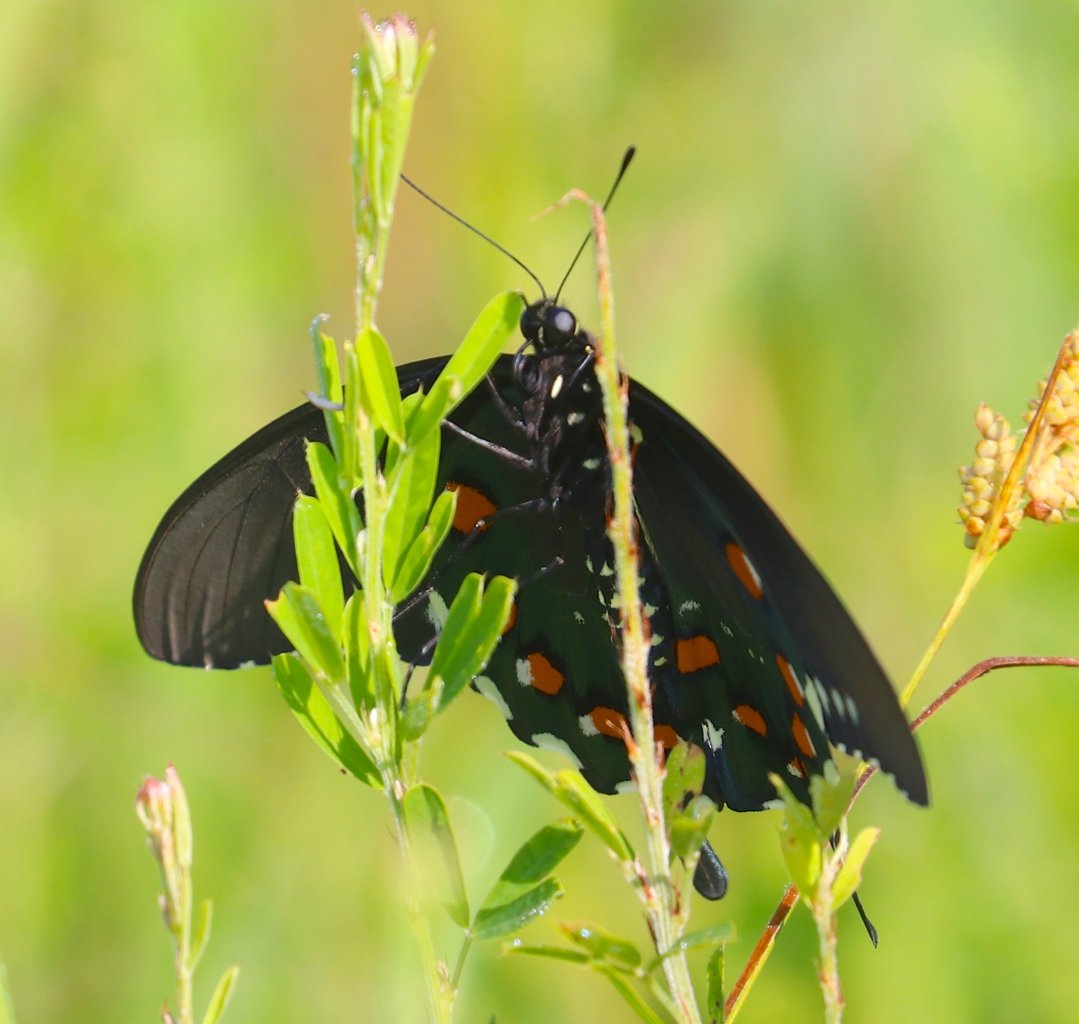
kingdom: Animalia
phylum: Arthropoda
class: Insecta
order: Lepidoptera
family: Papilionidae
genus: Battus
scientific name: Battus philenor
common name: Pipevine Swallowtail
